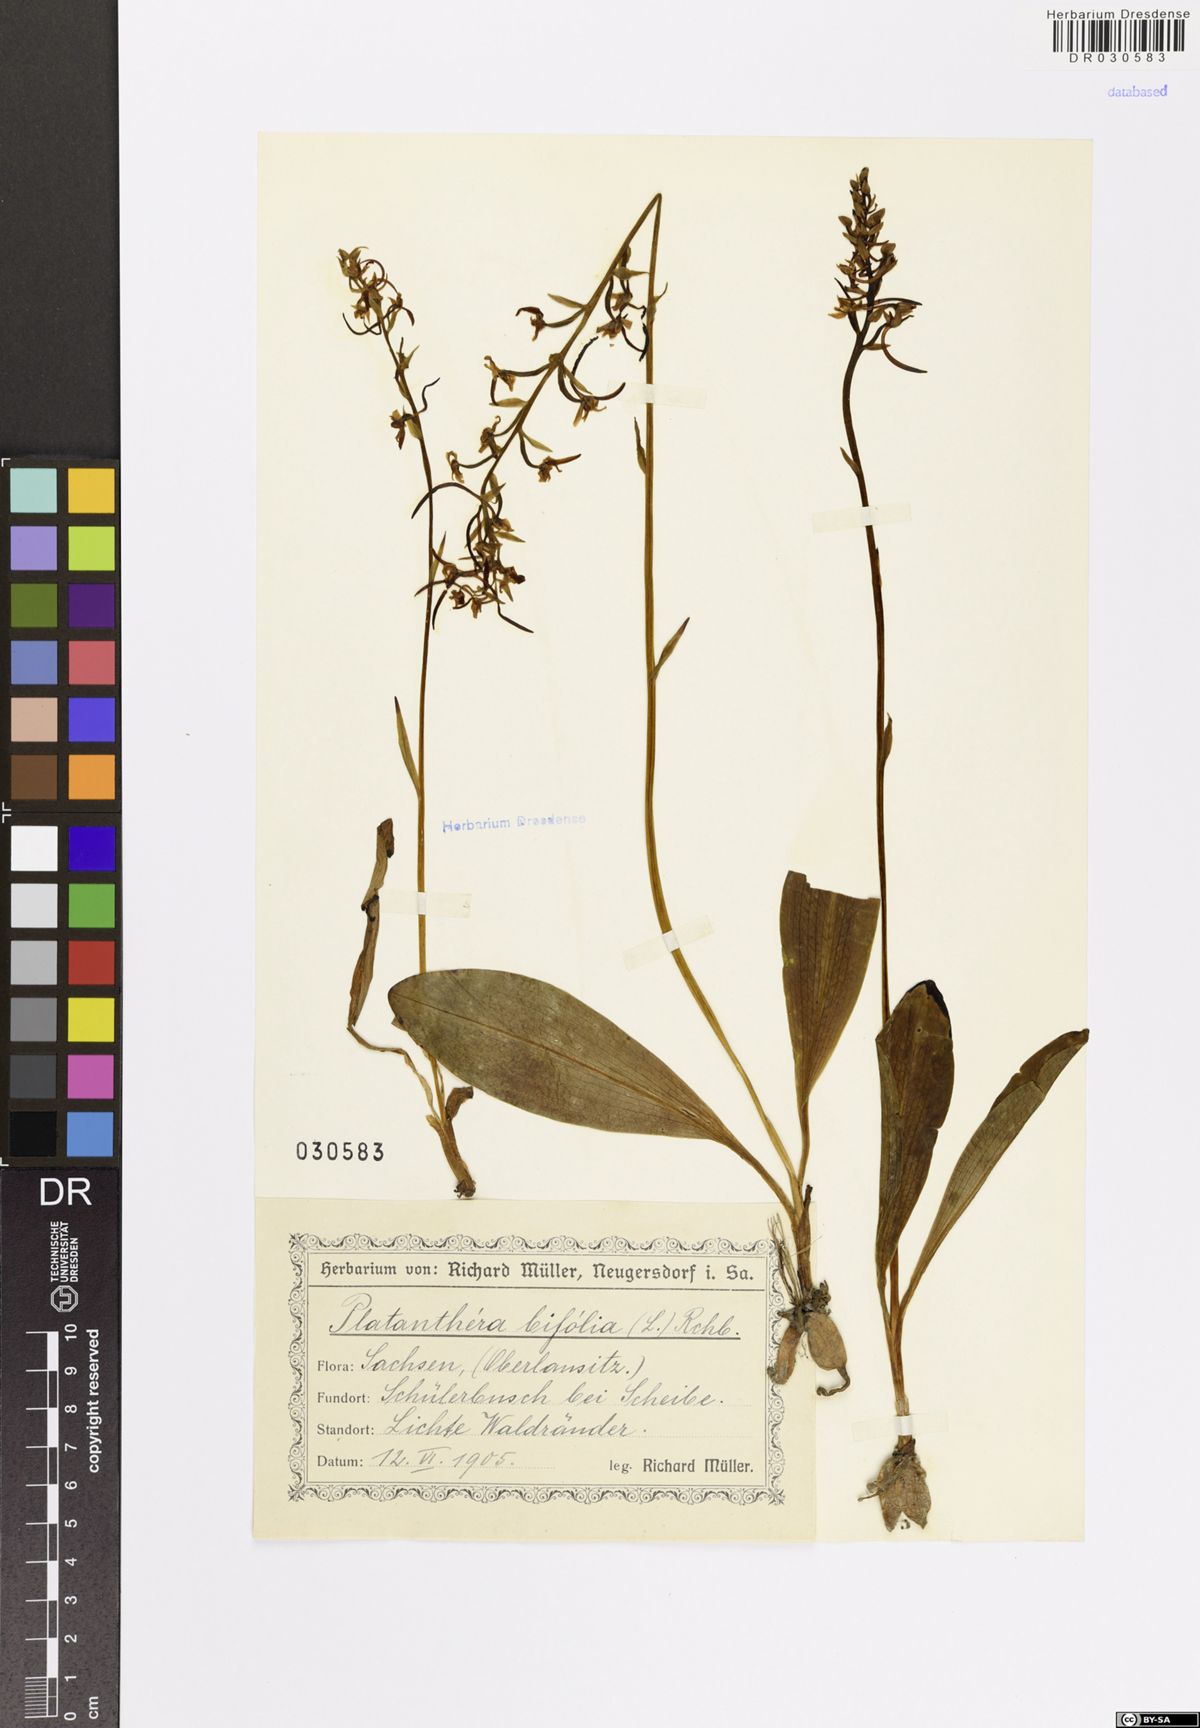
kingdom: Plantae
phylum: Tracheophyta
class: Liliopsida
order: Asparagales
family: Orchidaceae
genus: Platanthera
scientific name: Platanthera bifolia
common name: Lesser butterfly-orchid
